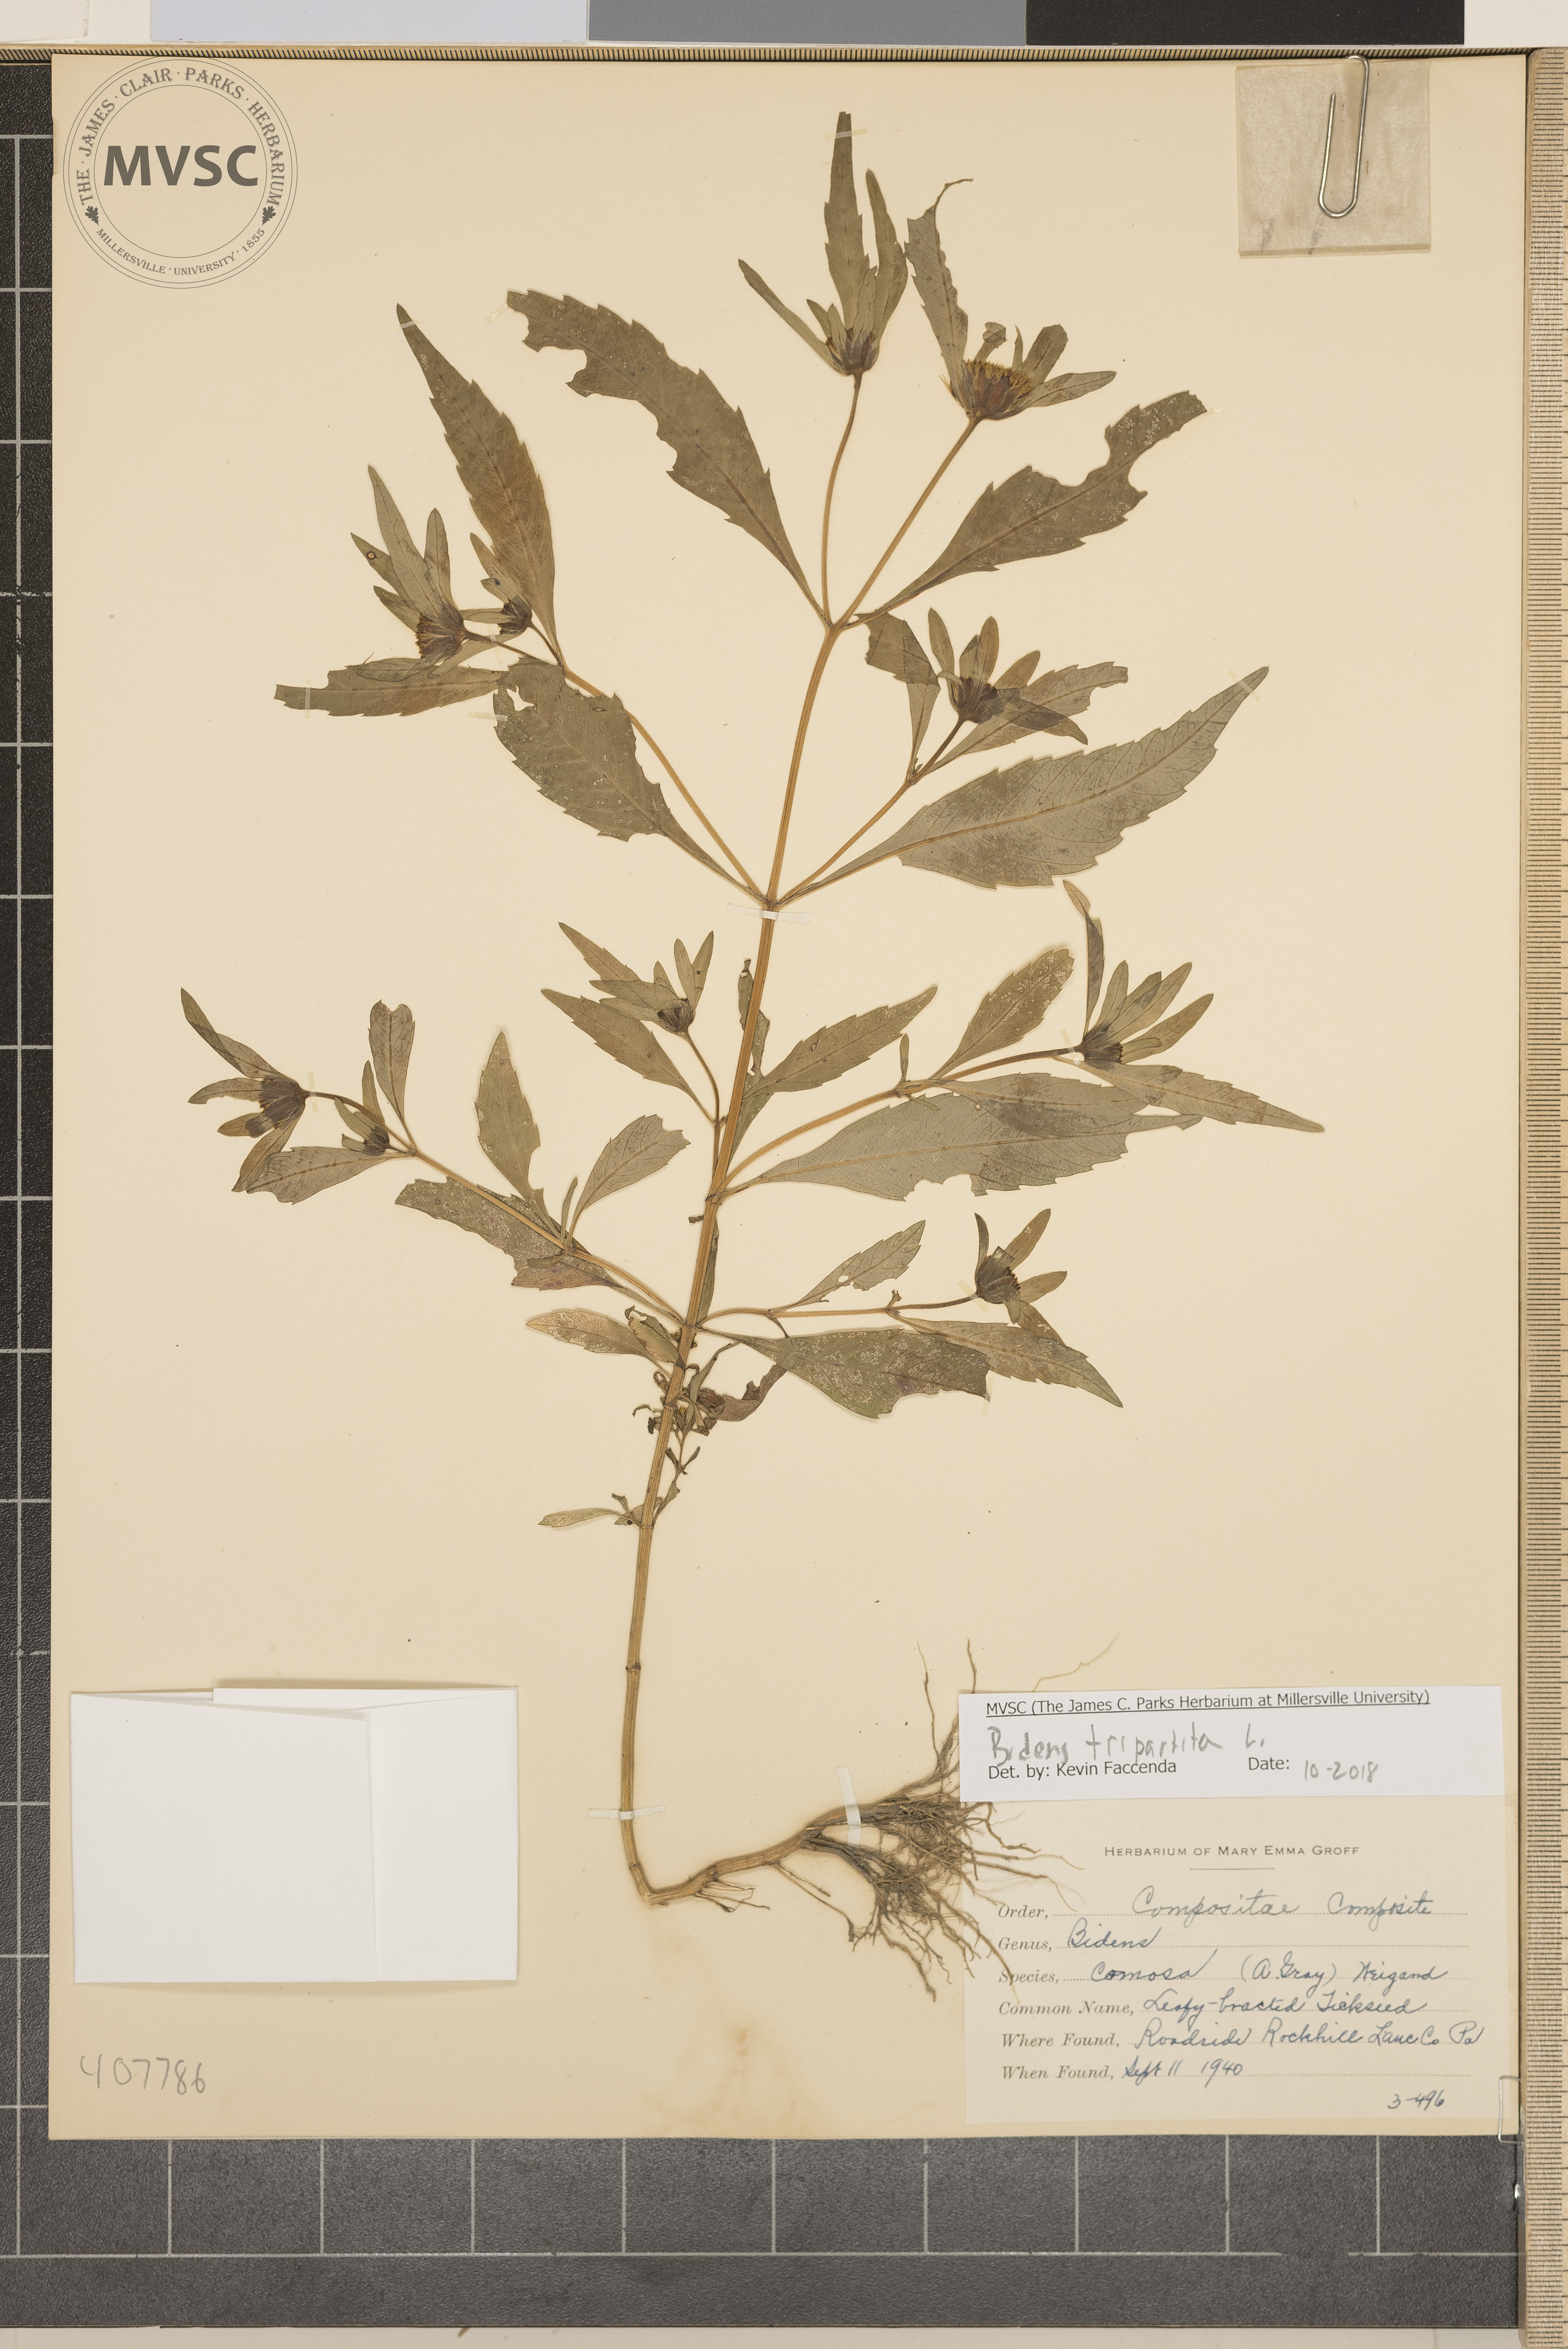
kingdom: Plantae
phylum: Tracheophyta
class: Magnoliopsida
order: Asterales
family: Asteraceae
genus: Bidens
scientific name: Bidens tripartita
